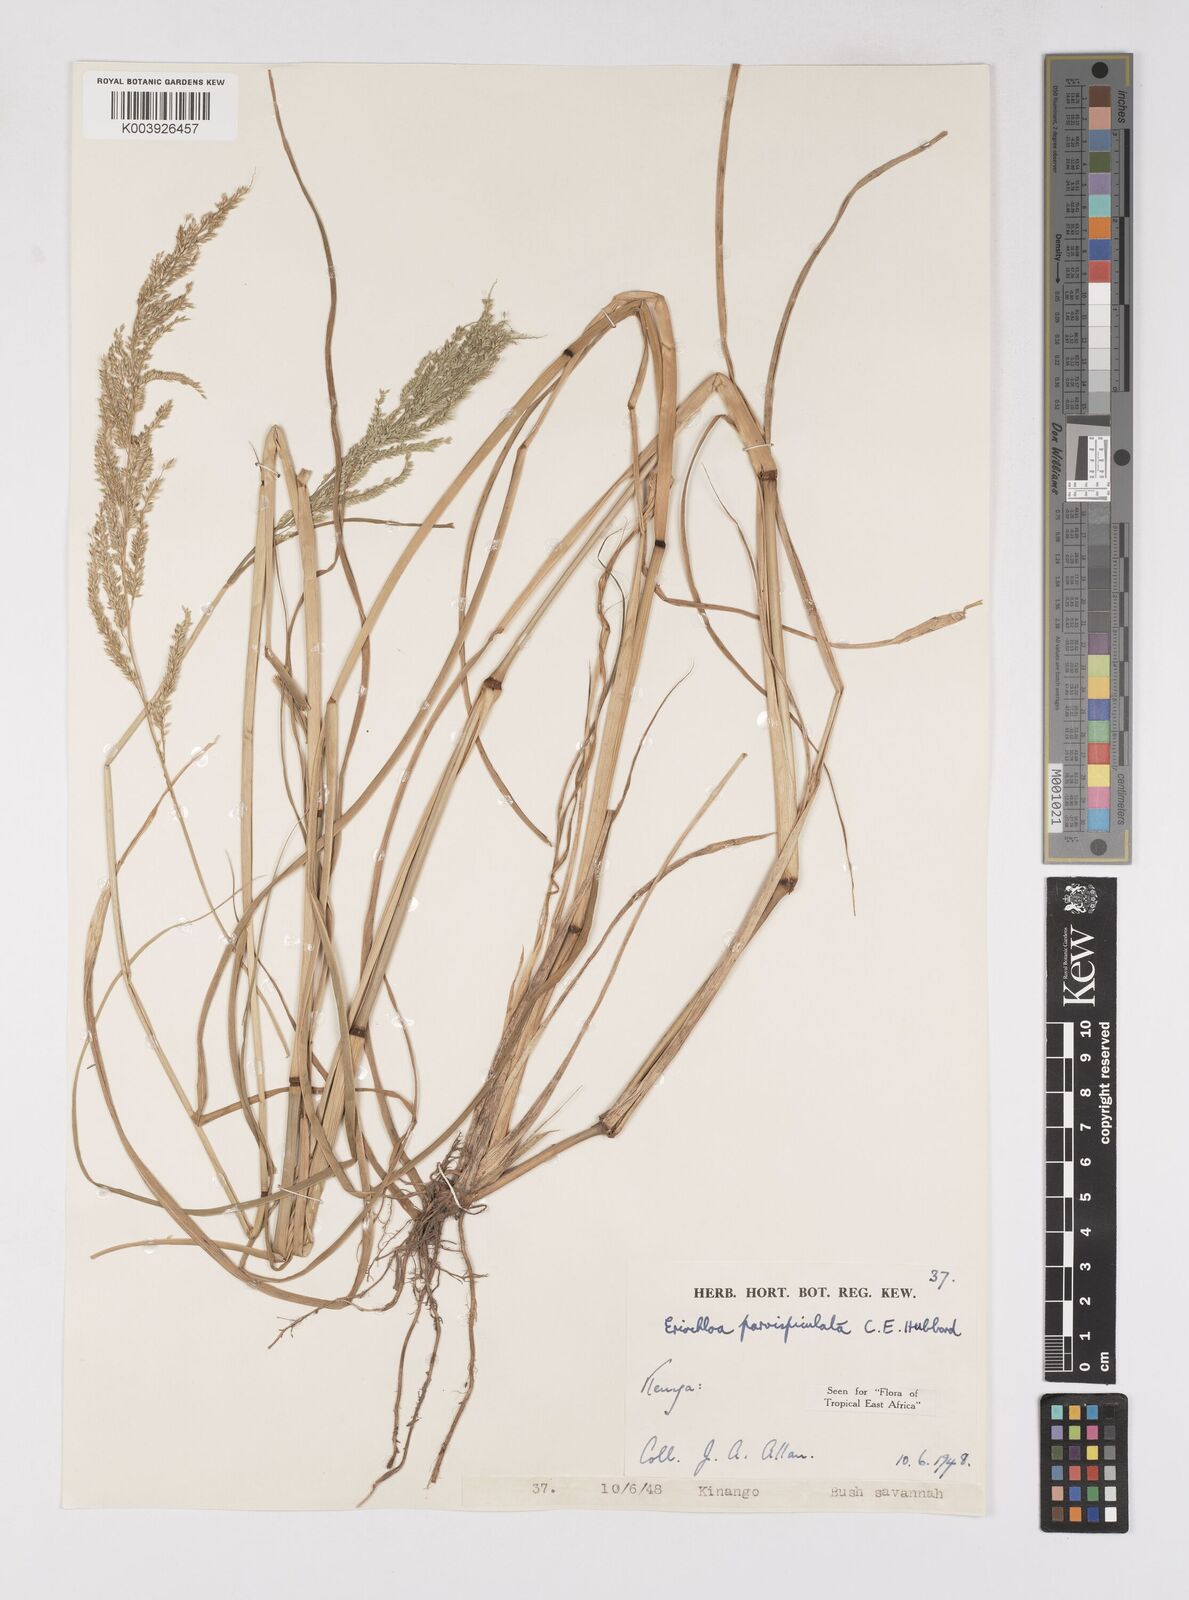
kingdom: Plantae
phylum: Tracheophyta
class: Liliopsida
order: Poales
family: Poaceae
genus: Eriochloa
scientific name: Eriochloa parvispiculata
